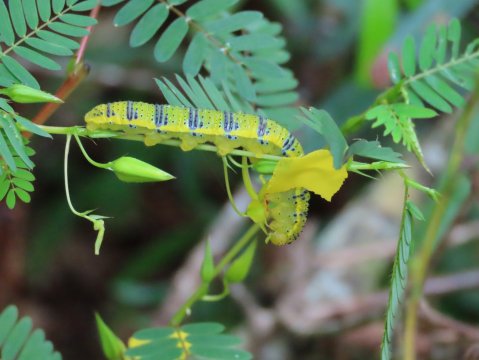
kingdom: Animalia
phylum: Arthropoda
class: Insecta
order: Lepidoptera
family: Pieridae
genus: Phoebis
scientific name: Phoebis sennae
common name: Cloudless Sulphur
